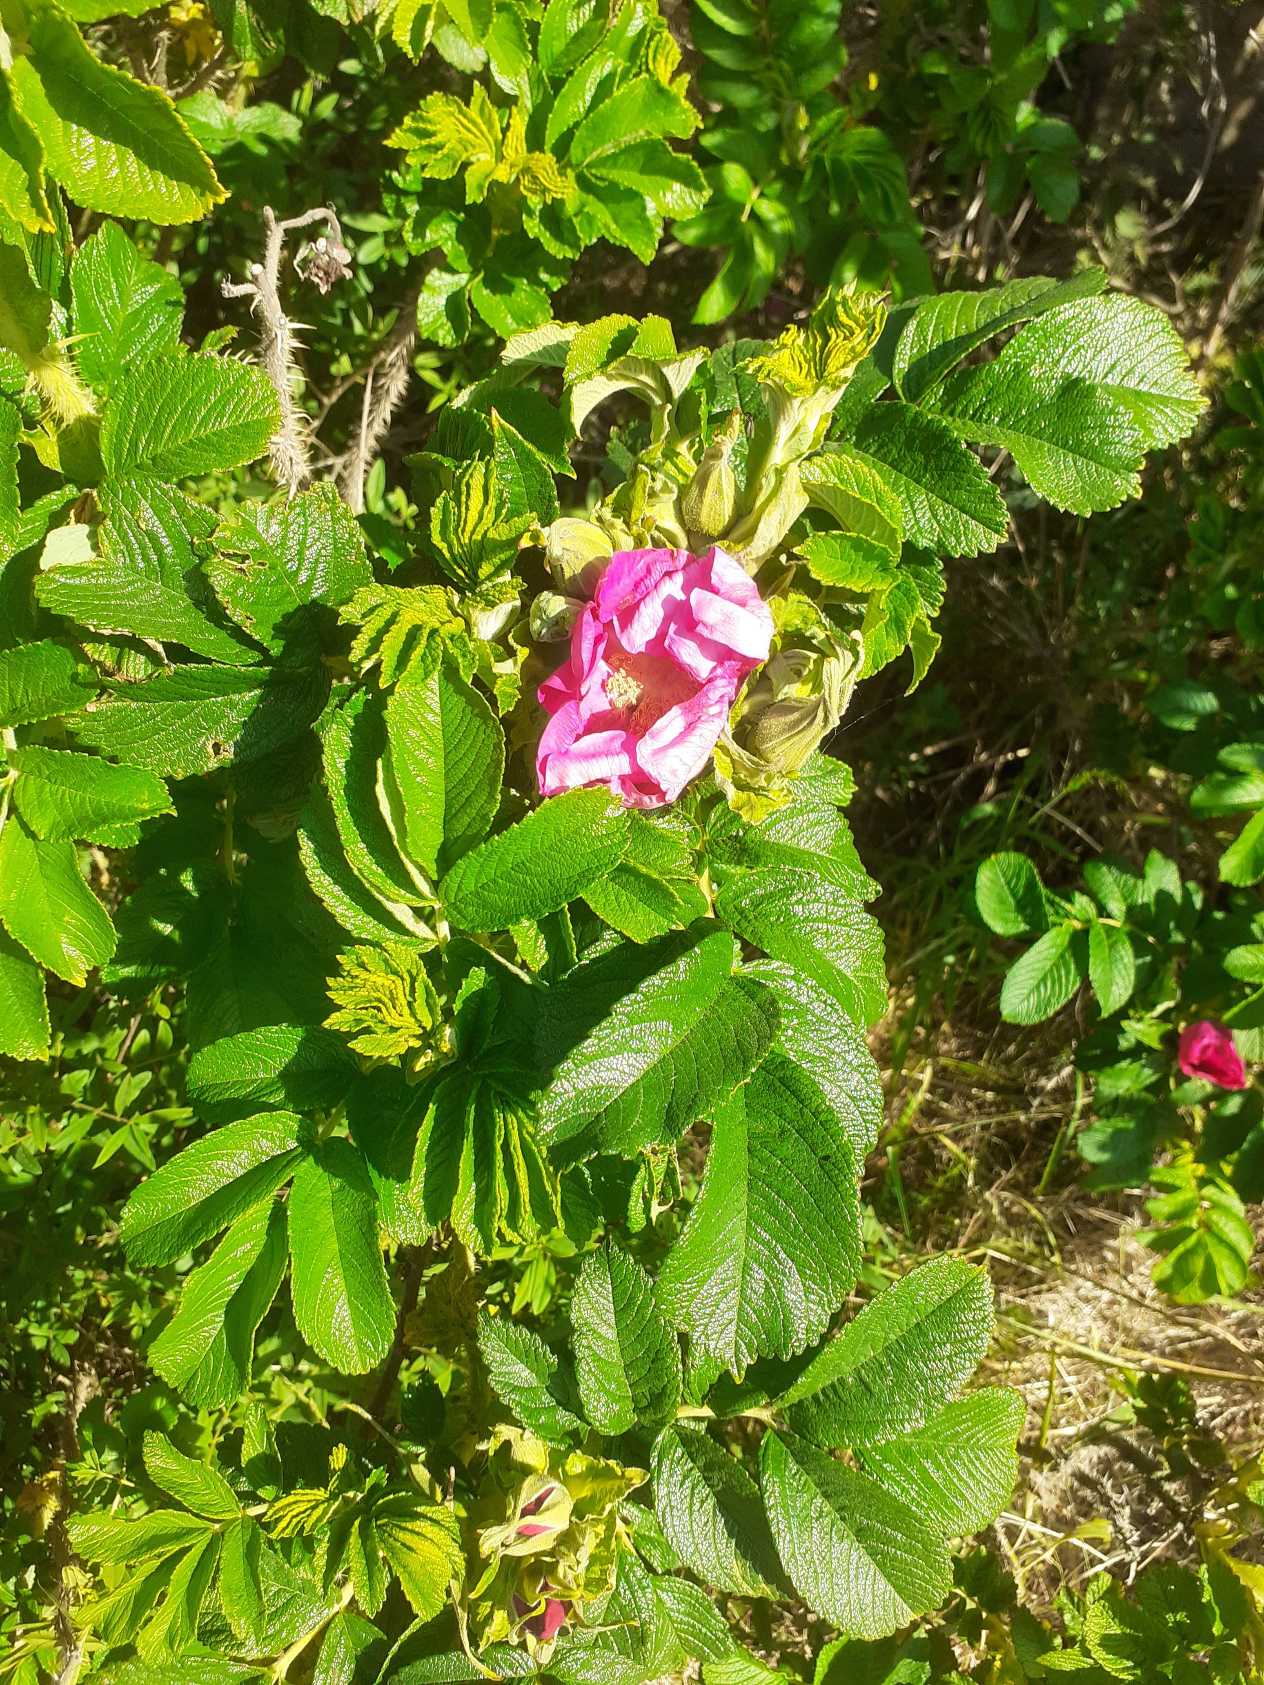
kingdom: Plantae
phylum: Tracheophyta
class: Magnoliopsida
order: Rosales
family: Rosaceae
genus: Rosa
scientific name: Rosa rugosa
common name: Rynket rose
